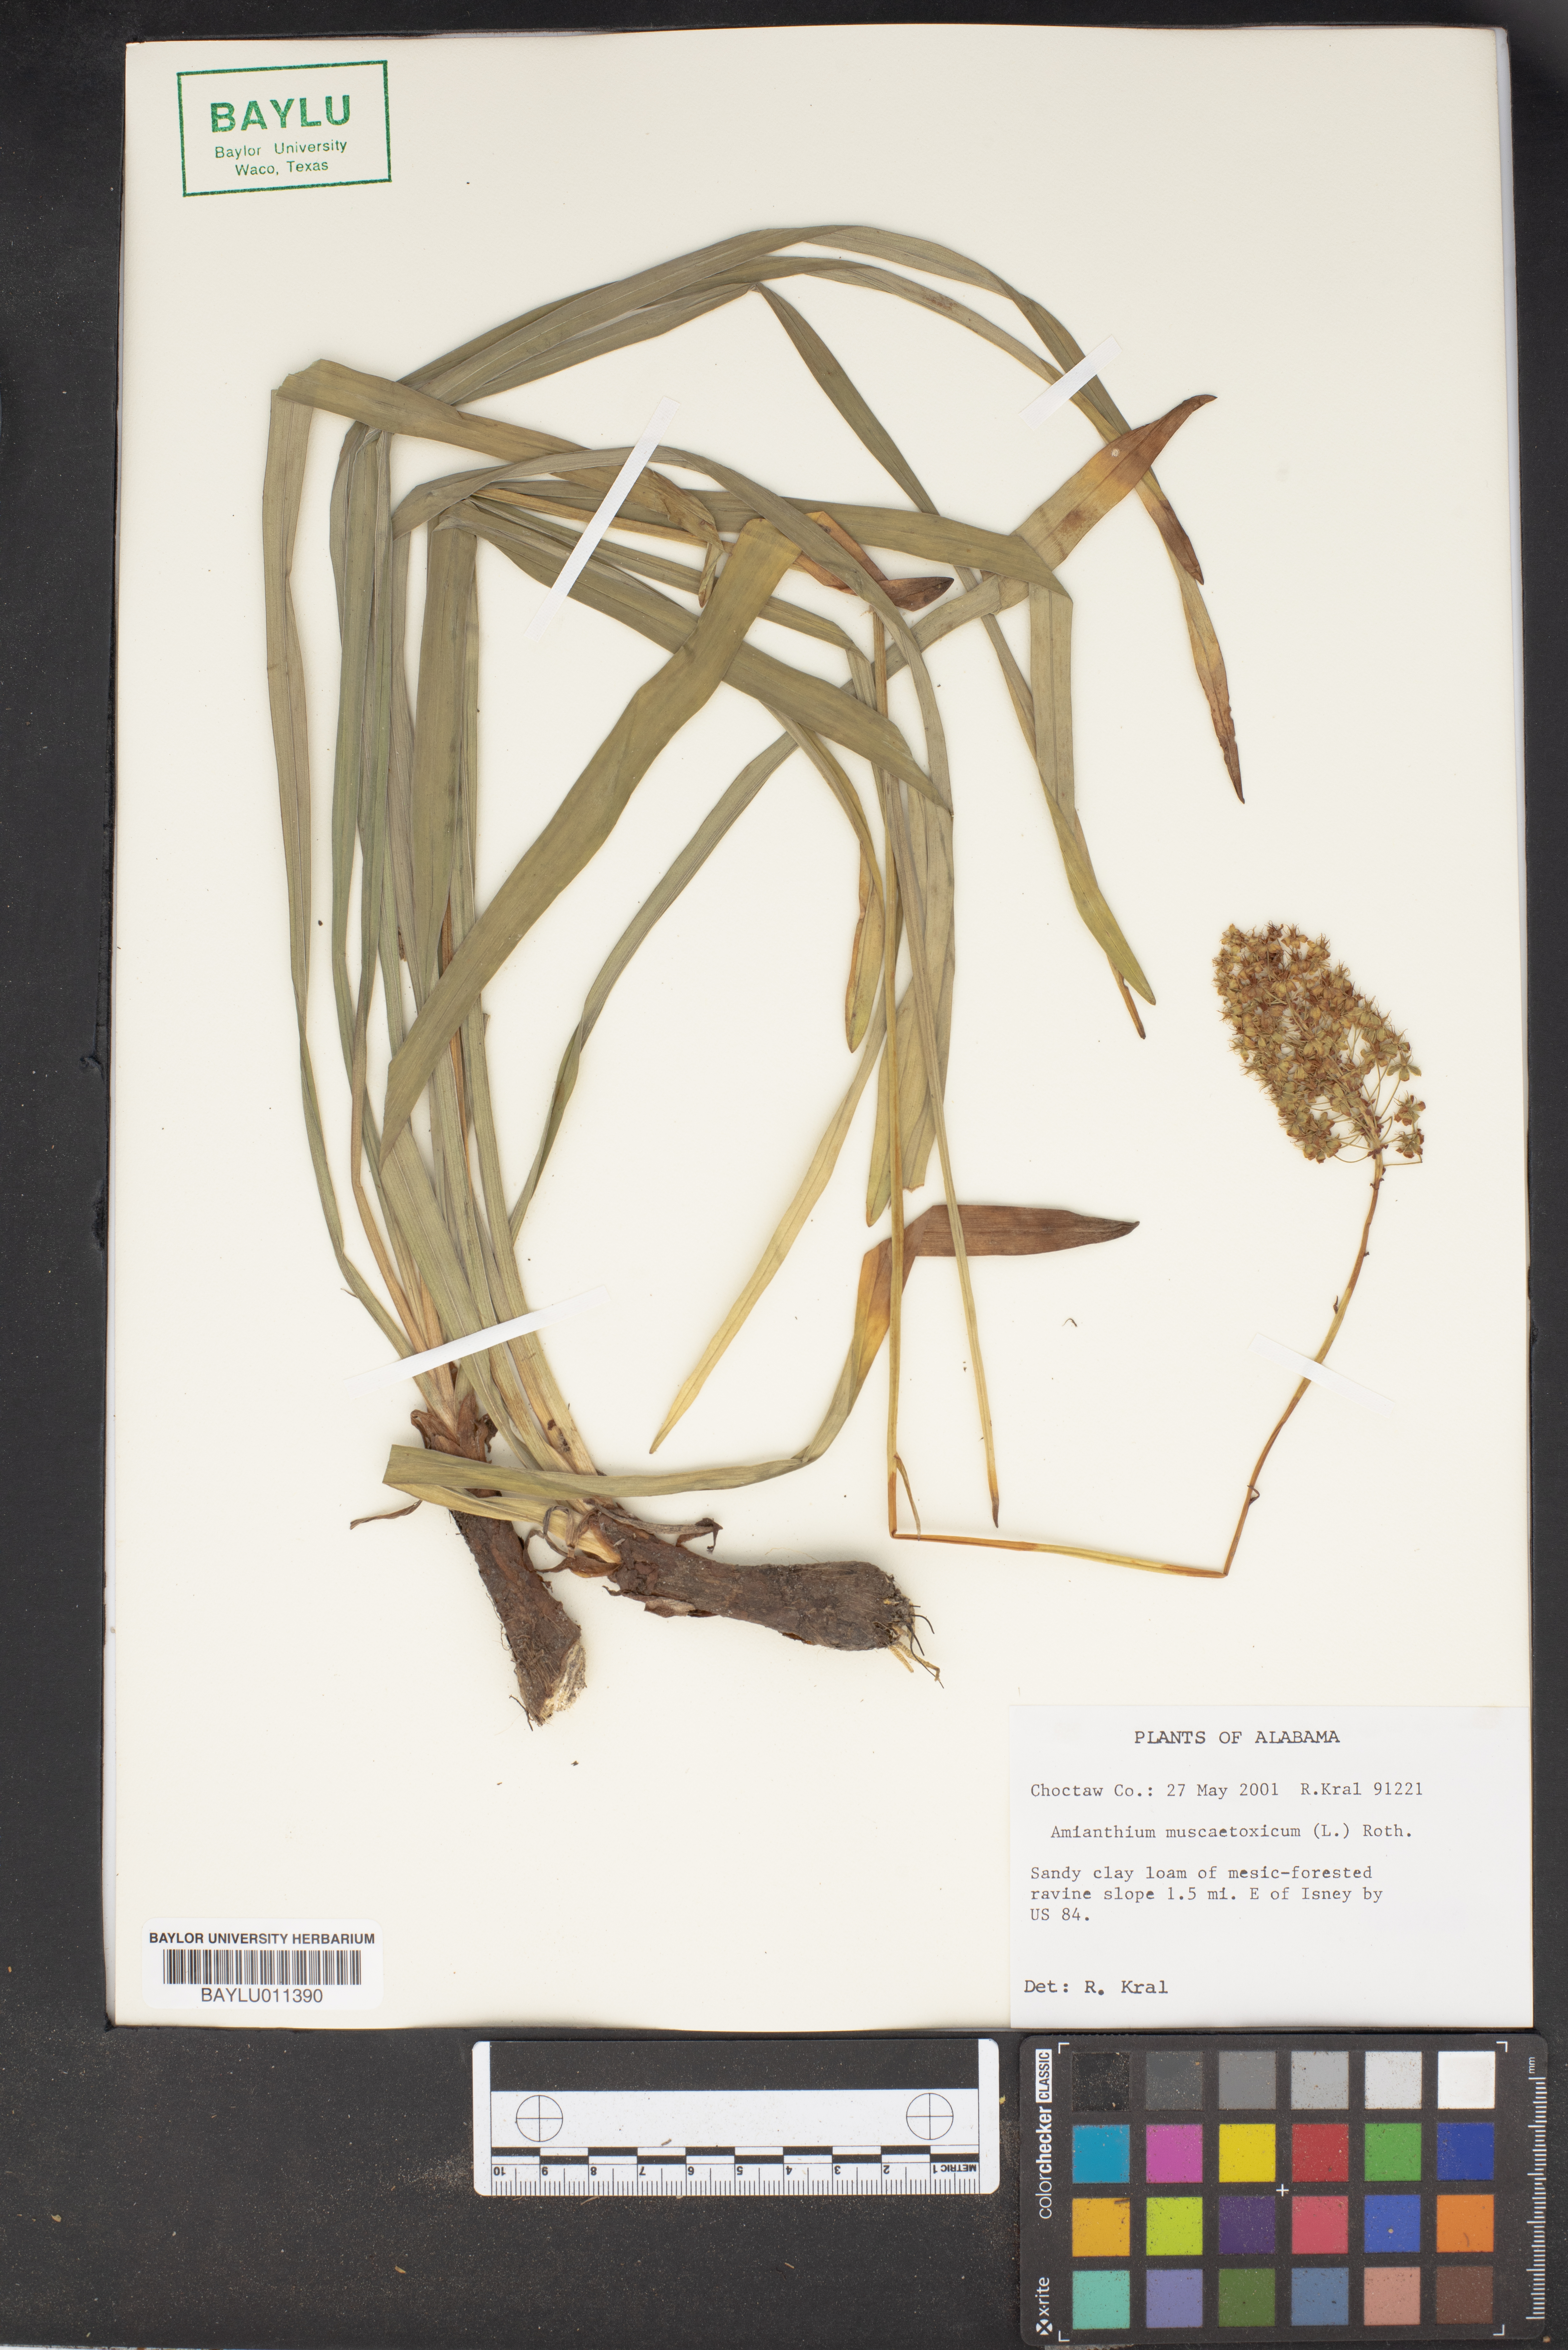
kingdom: Plantae
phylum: Tracheophyta
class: Liliopsida
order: Liliales
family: Melanthiaceae
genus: Amianthium
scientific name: Amianthium muscitoxicum
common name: Fly-poison
